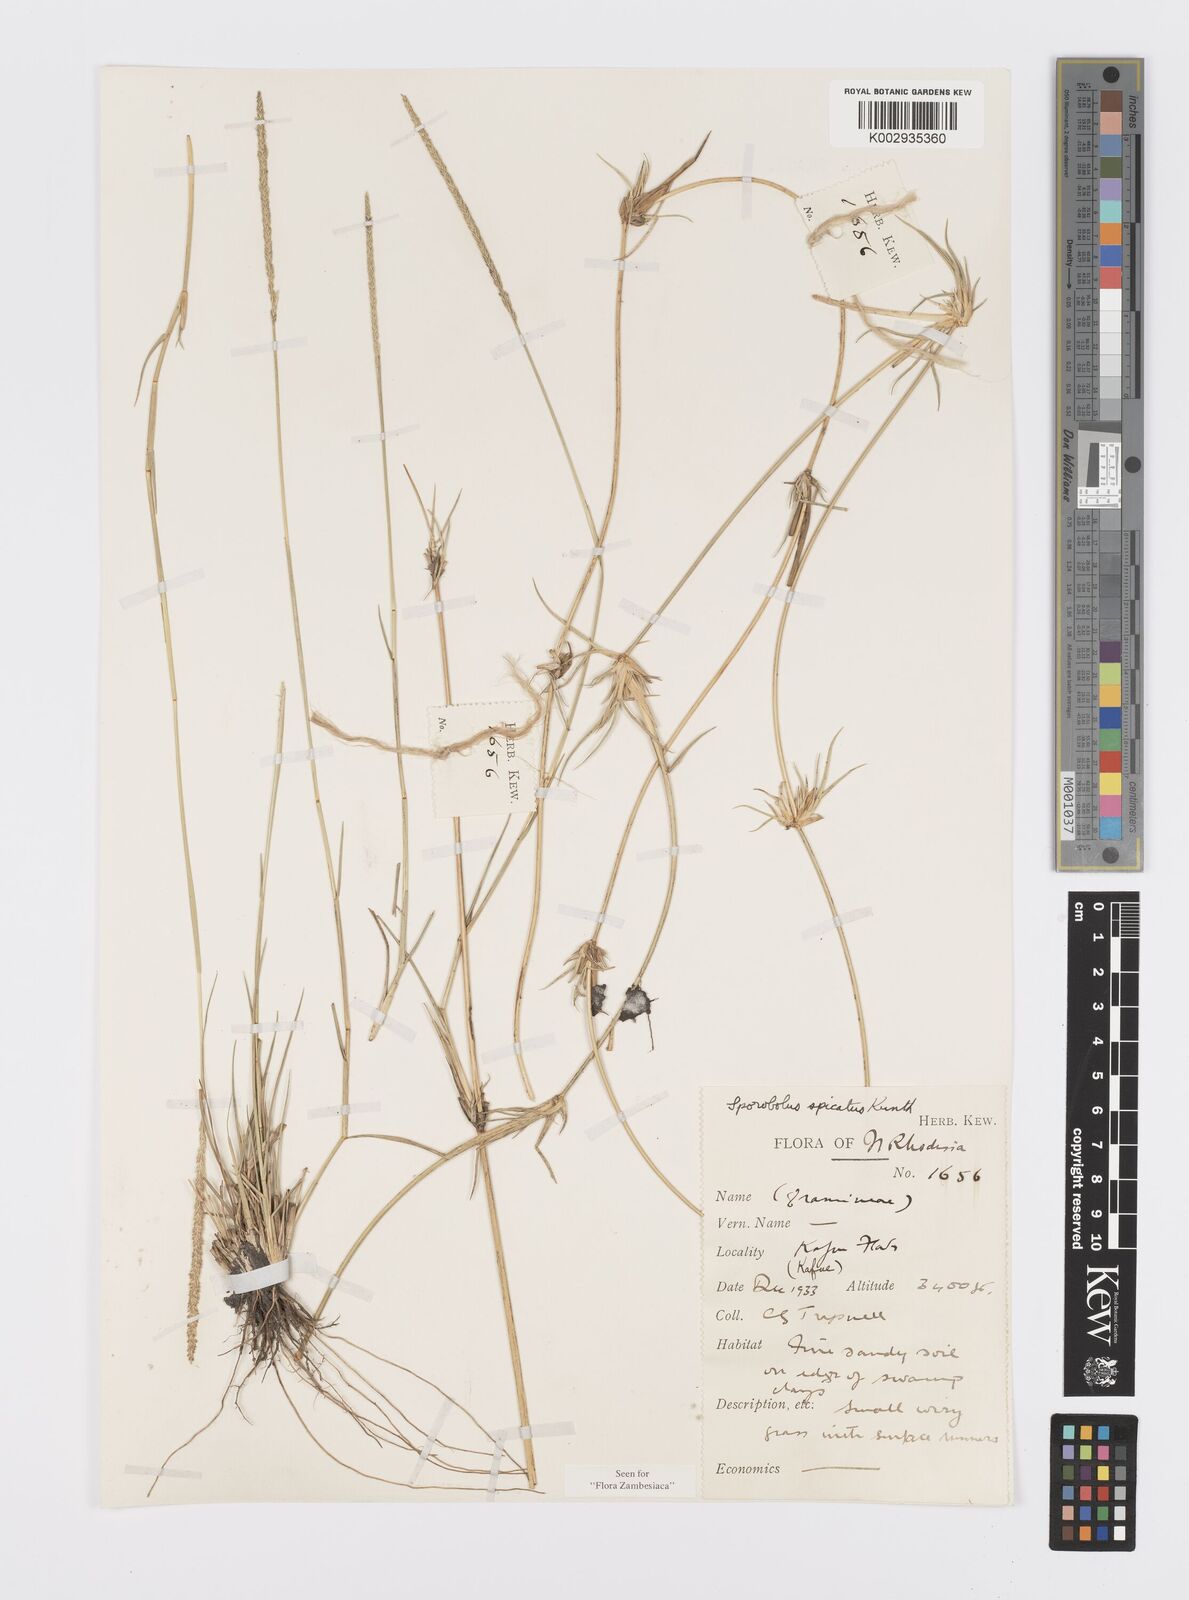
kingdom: Plantae
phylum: Tracheophyta
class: Liliopsida
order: Poales
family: Poaceae
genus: Sporobolus
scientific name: Sporobolus spicatus
